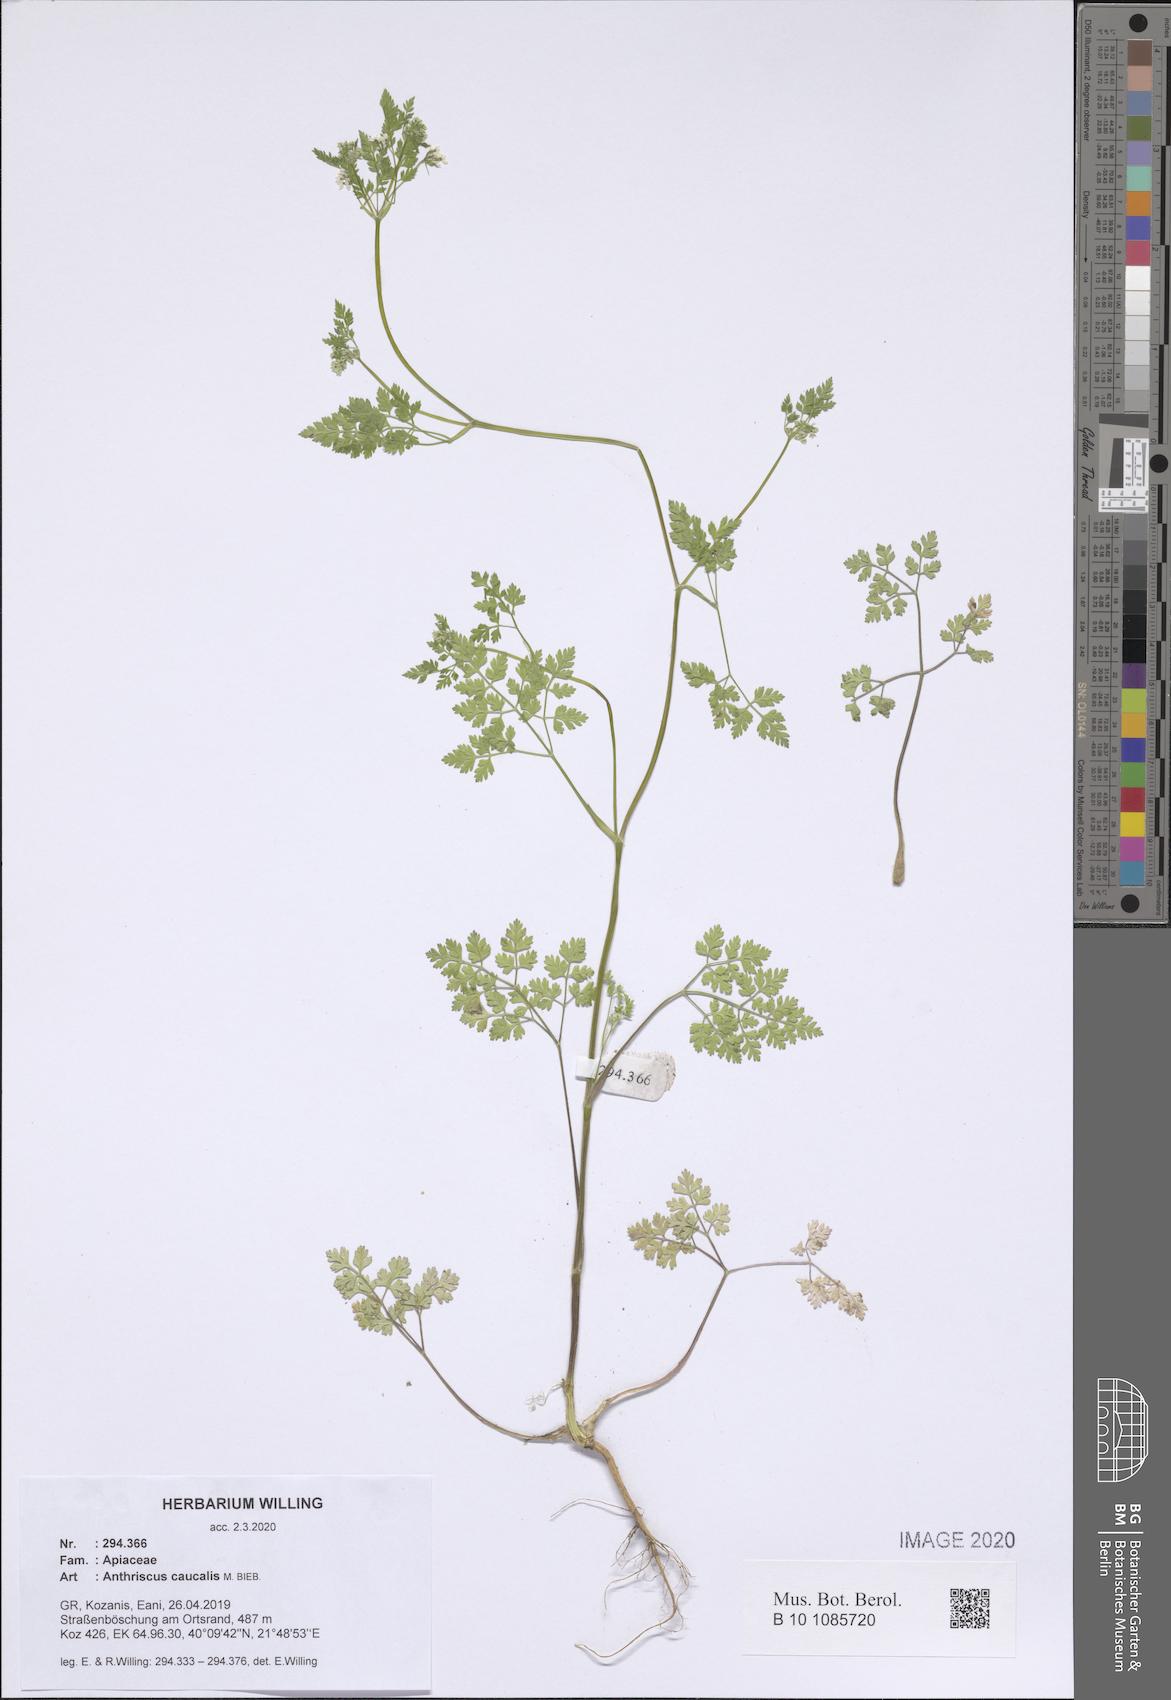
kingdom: Plantae
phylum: Tracheophyta
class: Magnoliopsida
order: Apiales
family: Apiaceae
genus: Anthriscus
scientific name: Anthriscus caucalis
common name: Bur chervil
